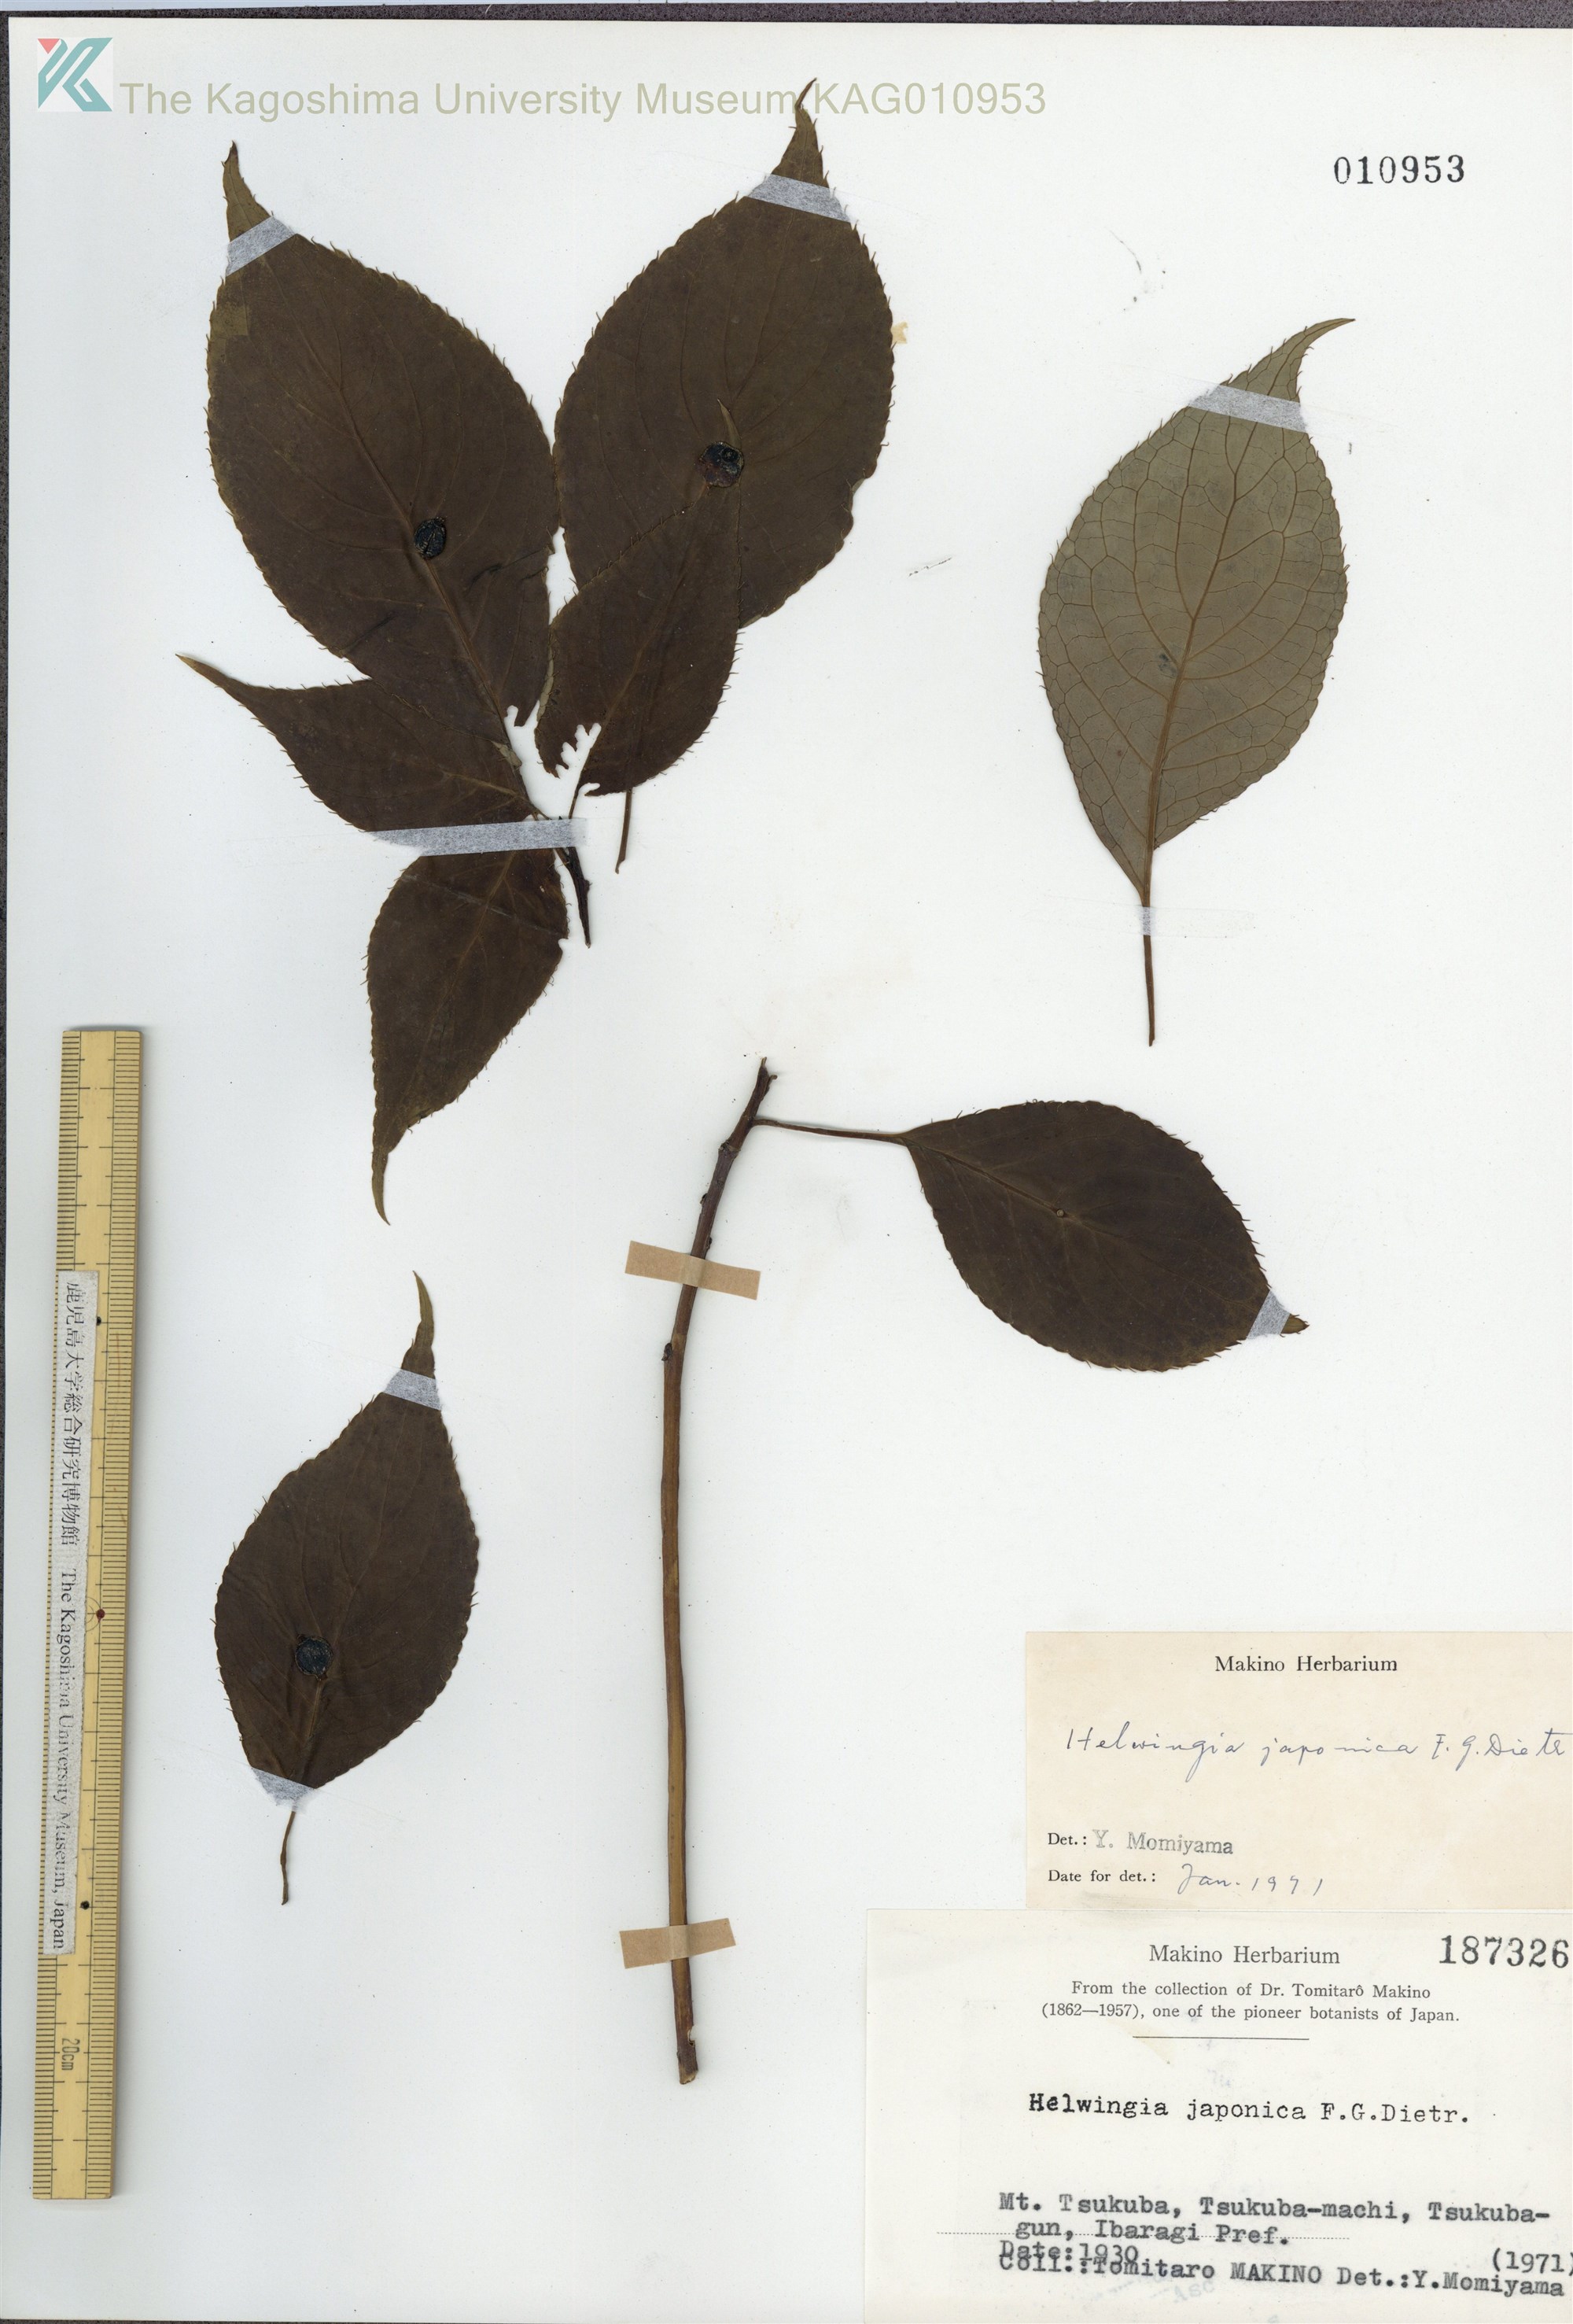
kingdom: Plantae
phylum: Tracheophyta
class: Magnoliopsida
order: Aquifoliales
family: Helwingiaceae
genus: Helwingia
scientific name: Helwingia japonica
